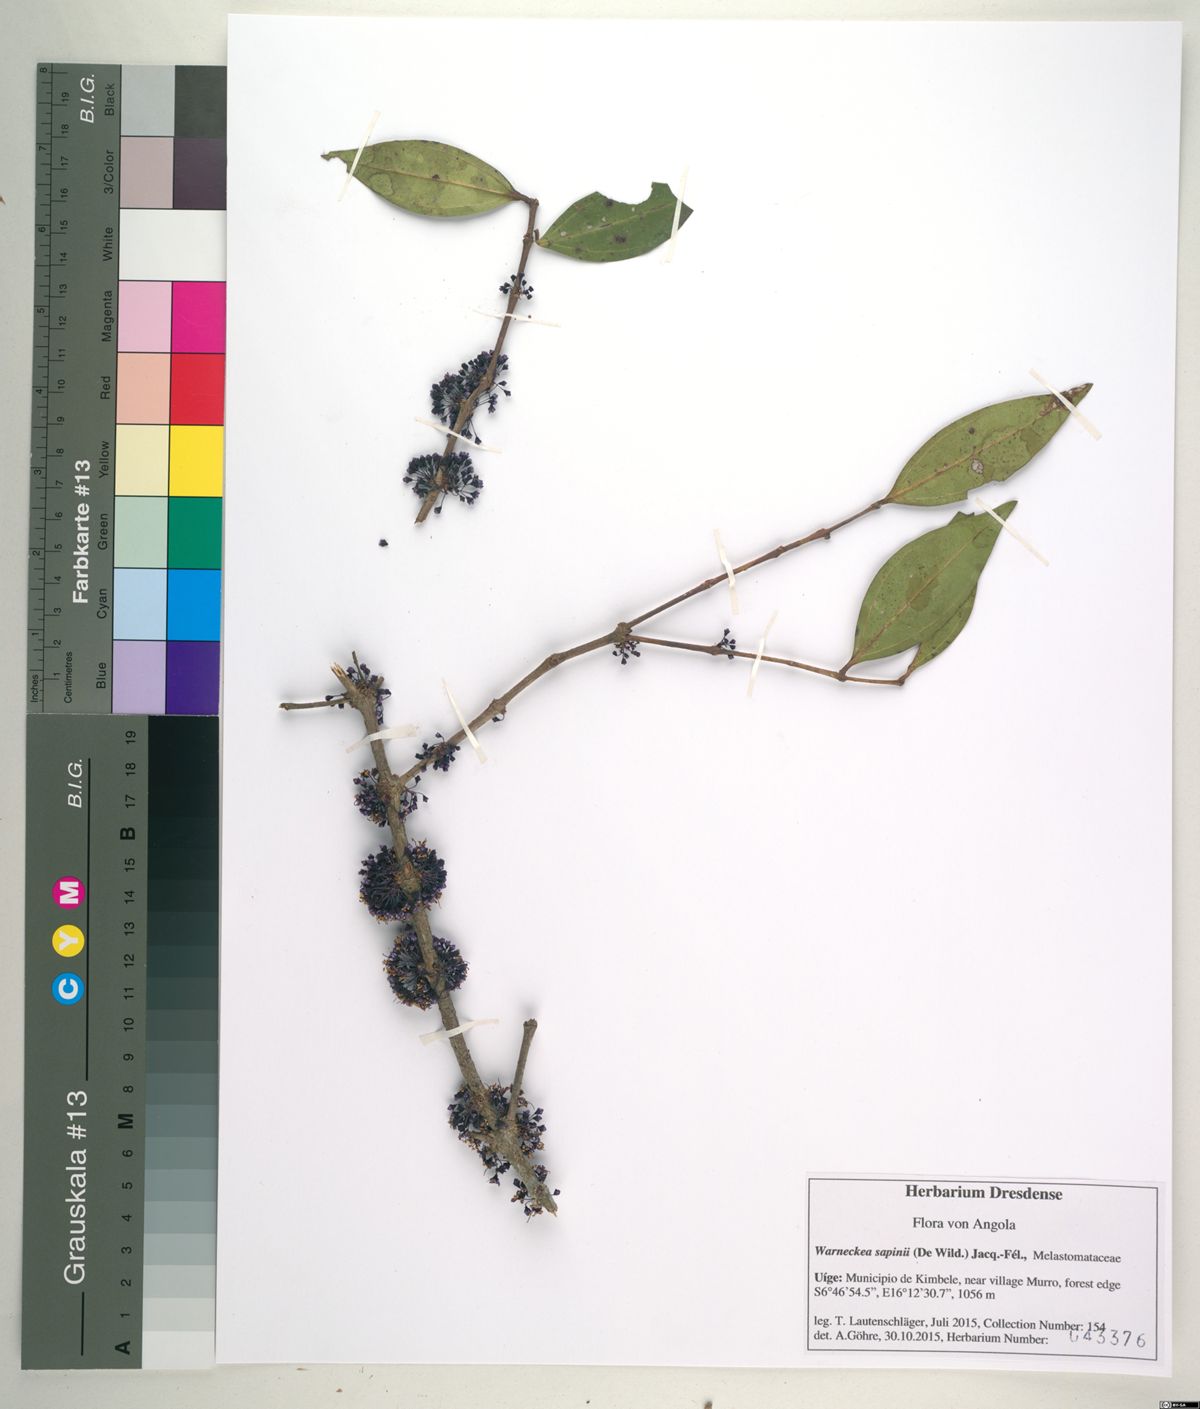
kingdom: Plantae
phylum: Tracheophyta
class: Magnoliopsida
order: Myrtales
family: Melastomataceae
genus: Warneckea
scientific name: Warneckea sapinii
